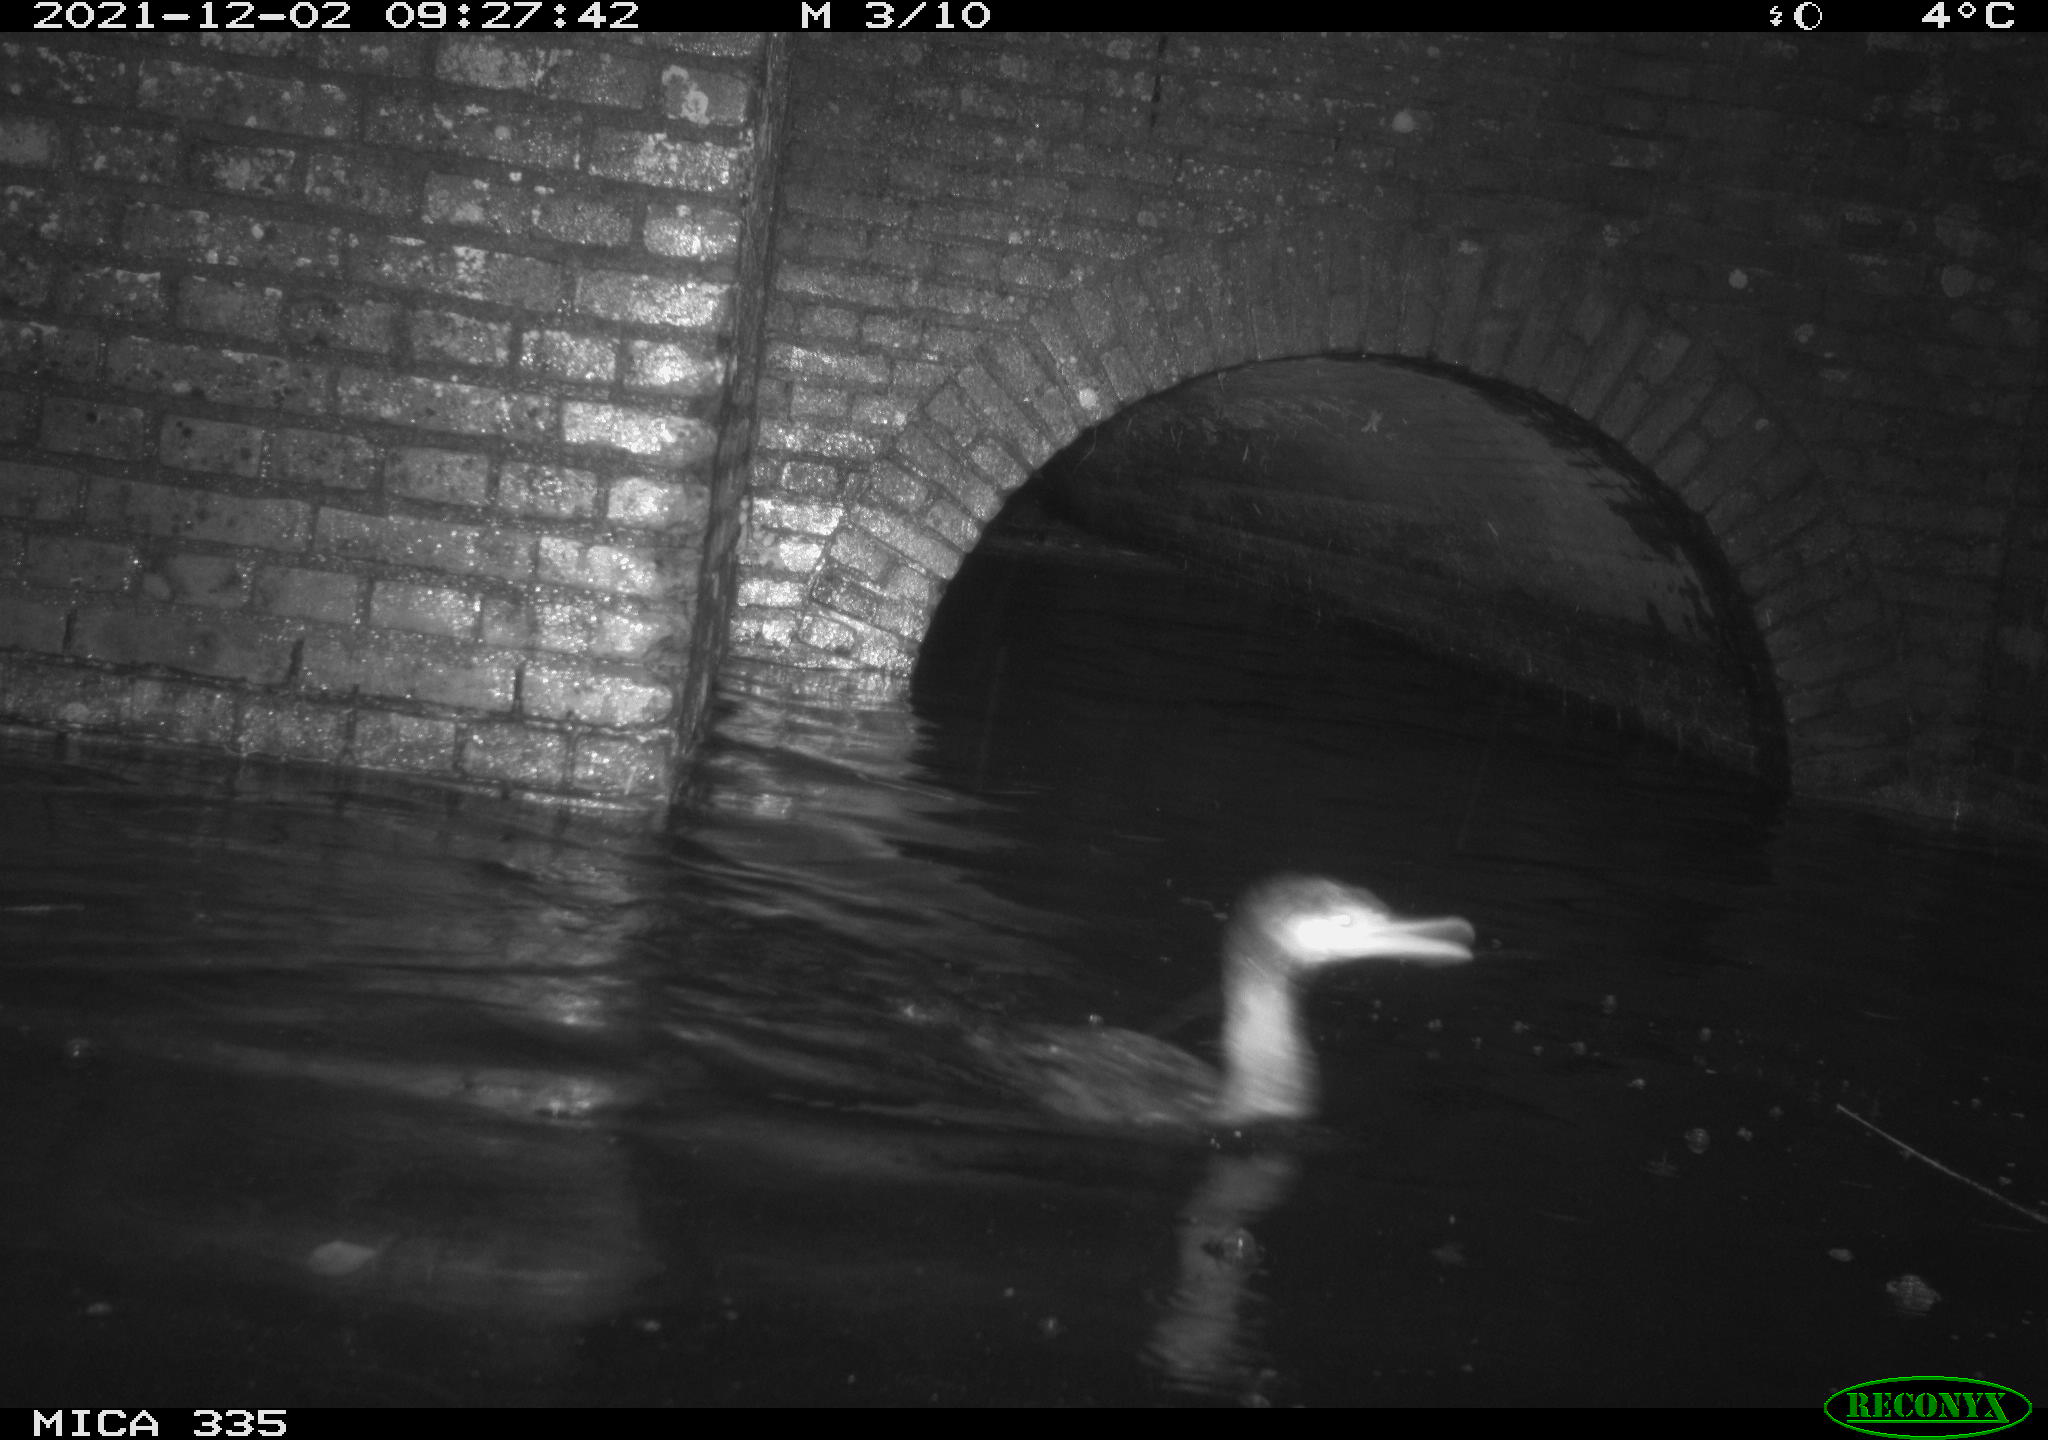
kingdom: Animalia
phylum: Chordata
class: Aves
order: Suliformes
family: Phalacrocoracidae
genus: Phalacrocorax
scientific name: Phalacrocorax carbo
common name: Great cormorant
